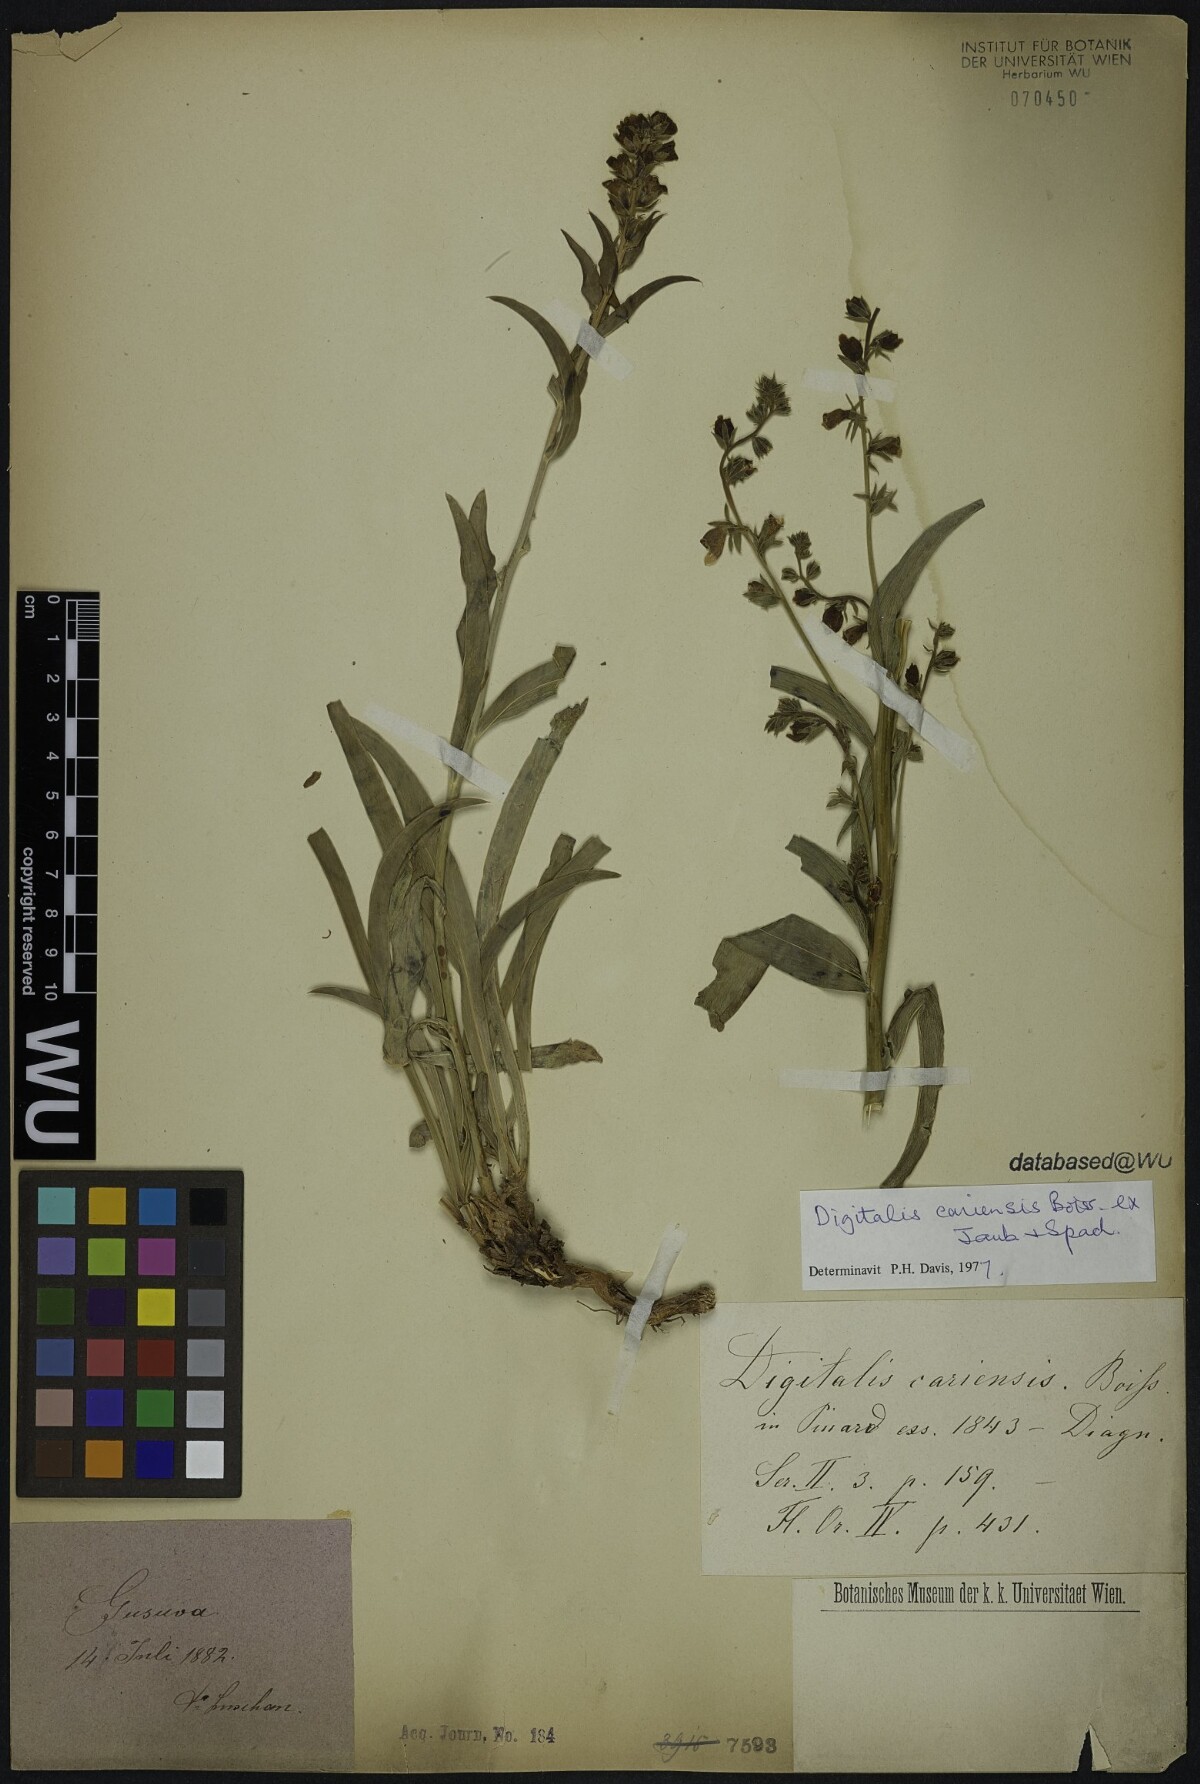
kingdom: Plantae
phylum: Tracheophyta
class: Magnoliopsida
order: Lamiales
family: Plantaginaceae
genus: Digitalis
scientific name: Digitalis cariensis
